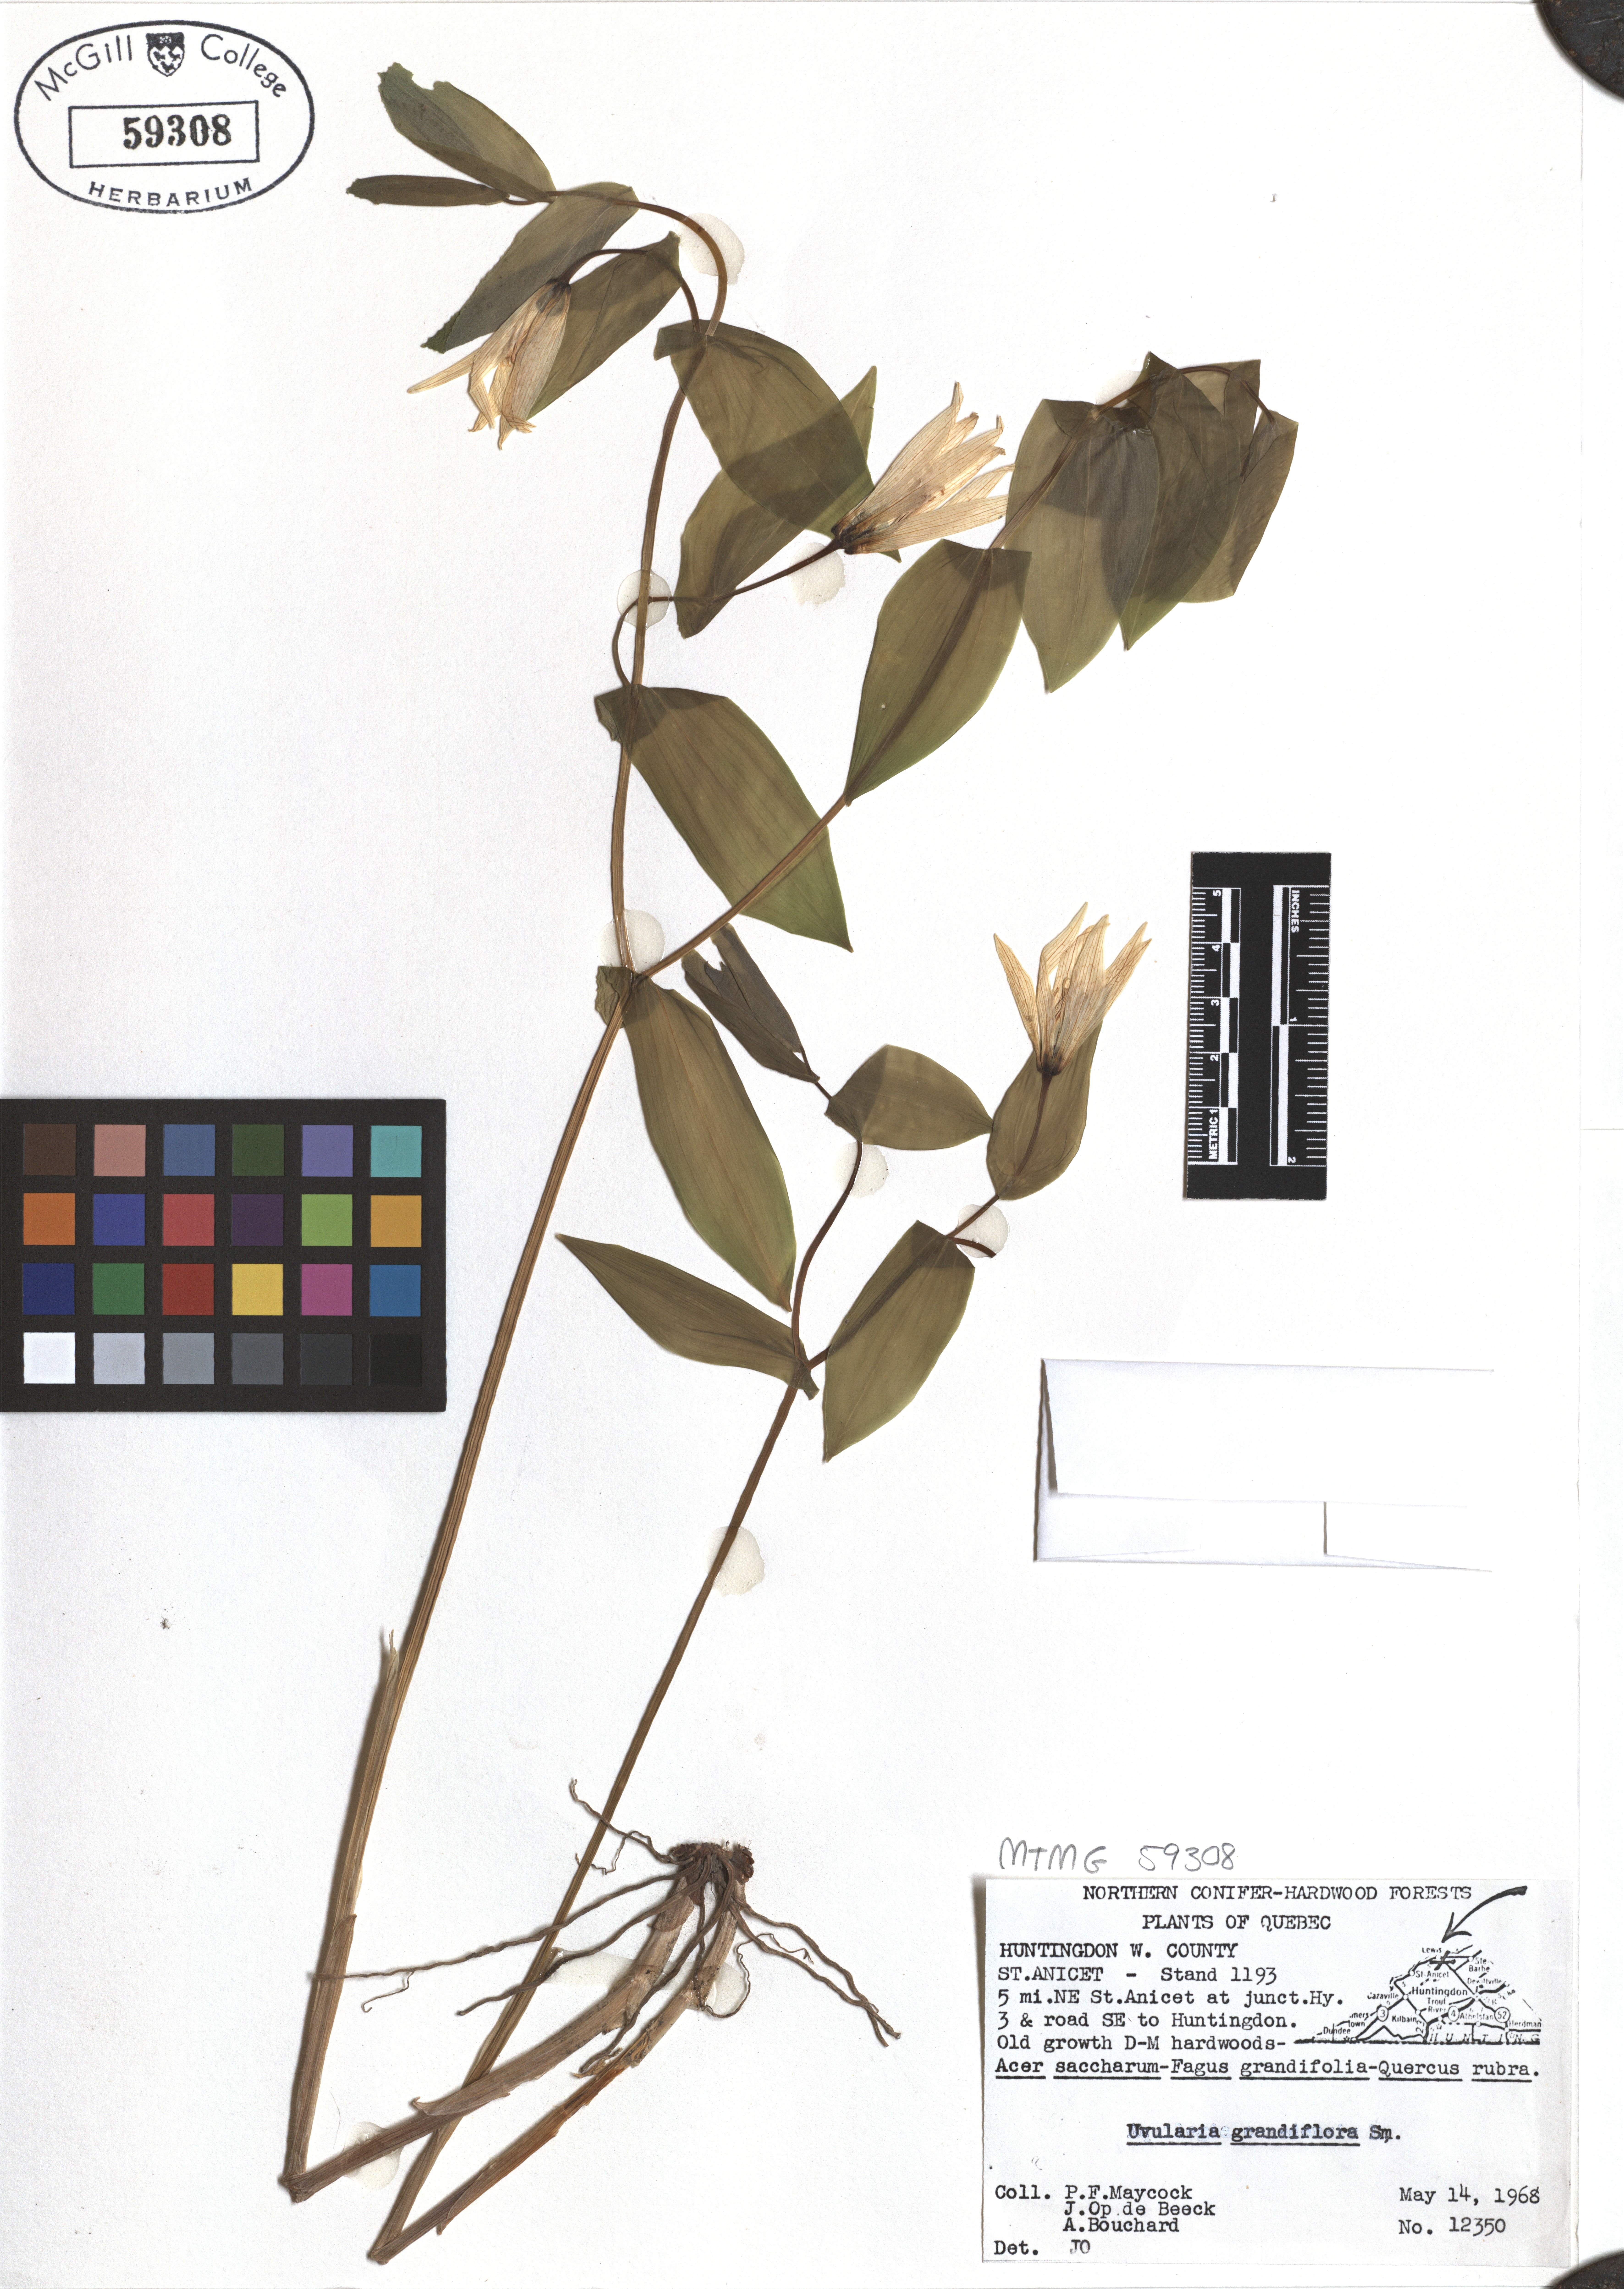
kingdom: Plantae
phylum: Tracheophyta
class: Liliopsida
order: Liliales
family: Colchicaceae
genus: Uvularia
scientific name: Uvularia grandiflora
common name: Bellwort
